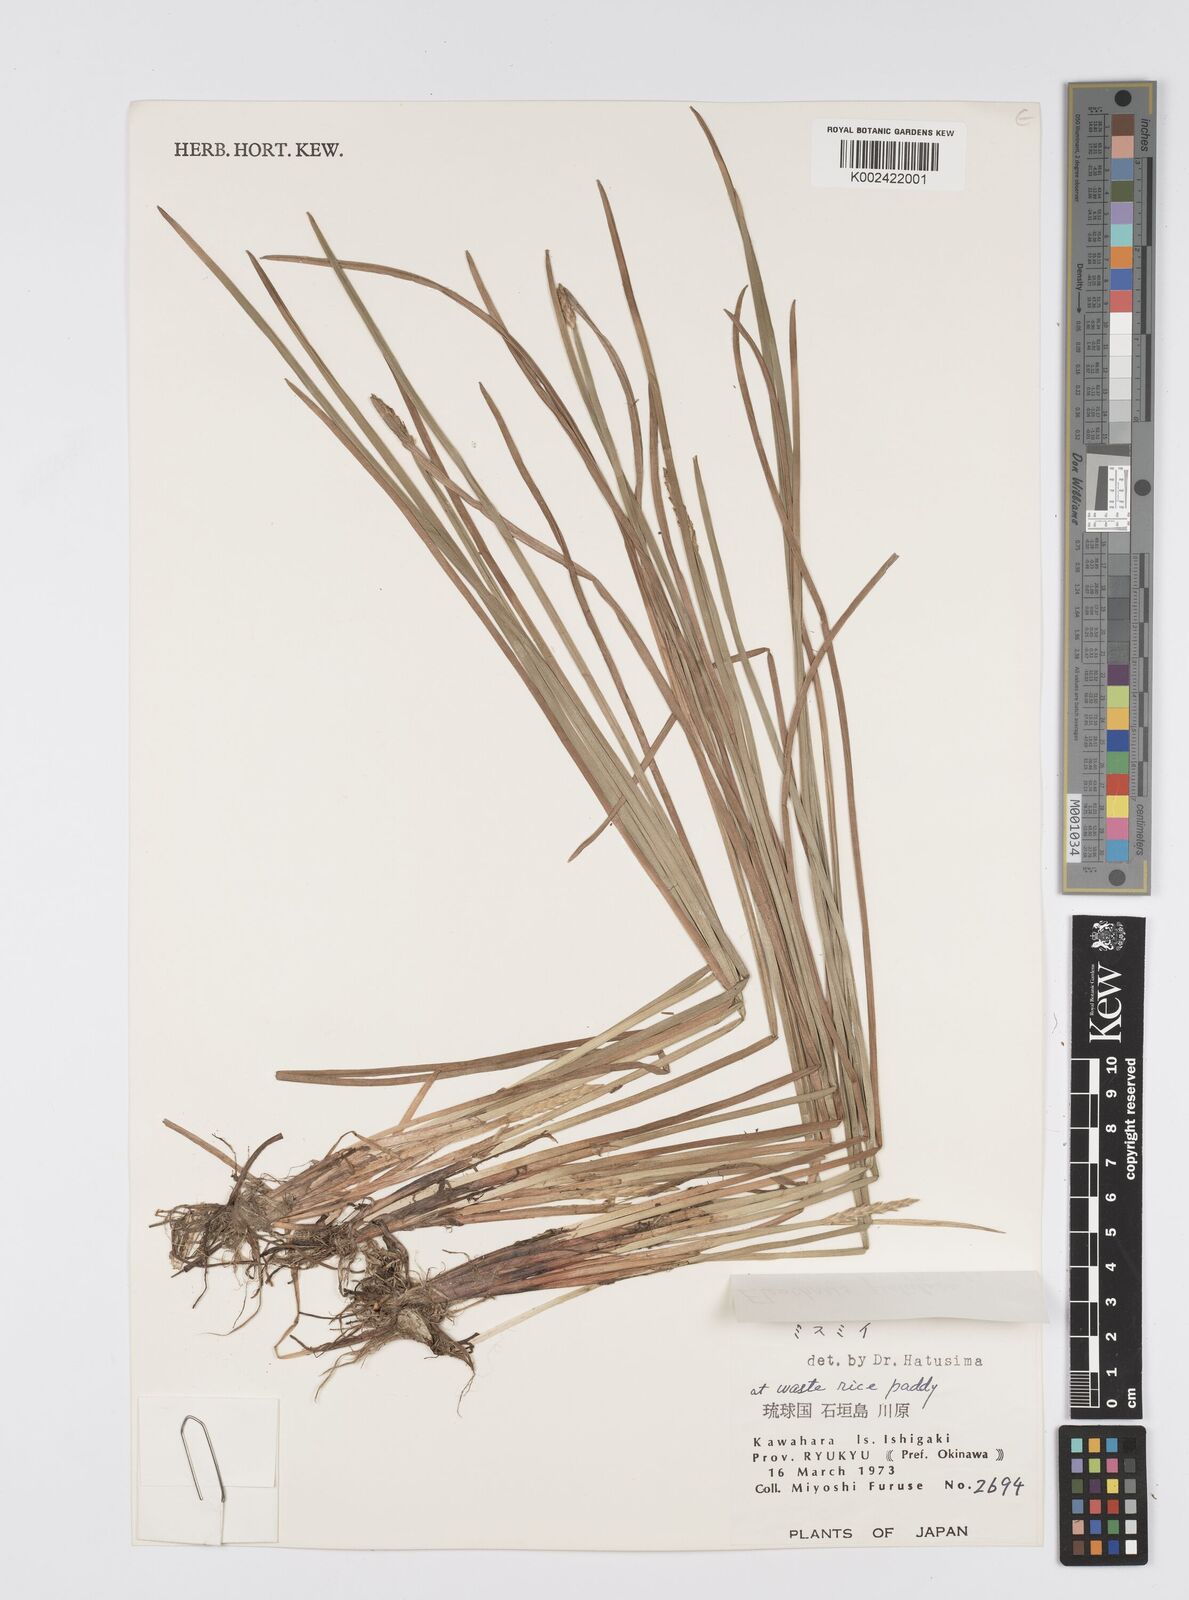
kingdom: Plantae
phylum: Tracheophyta
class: Liliopsida
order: Poales
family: Cyperaceae
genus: Eleocharis
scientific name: Eleocharis acutangula
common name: Acute spikerush
